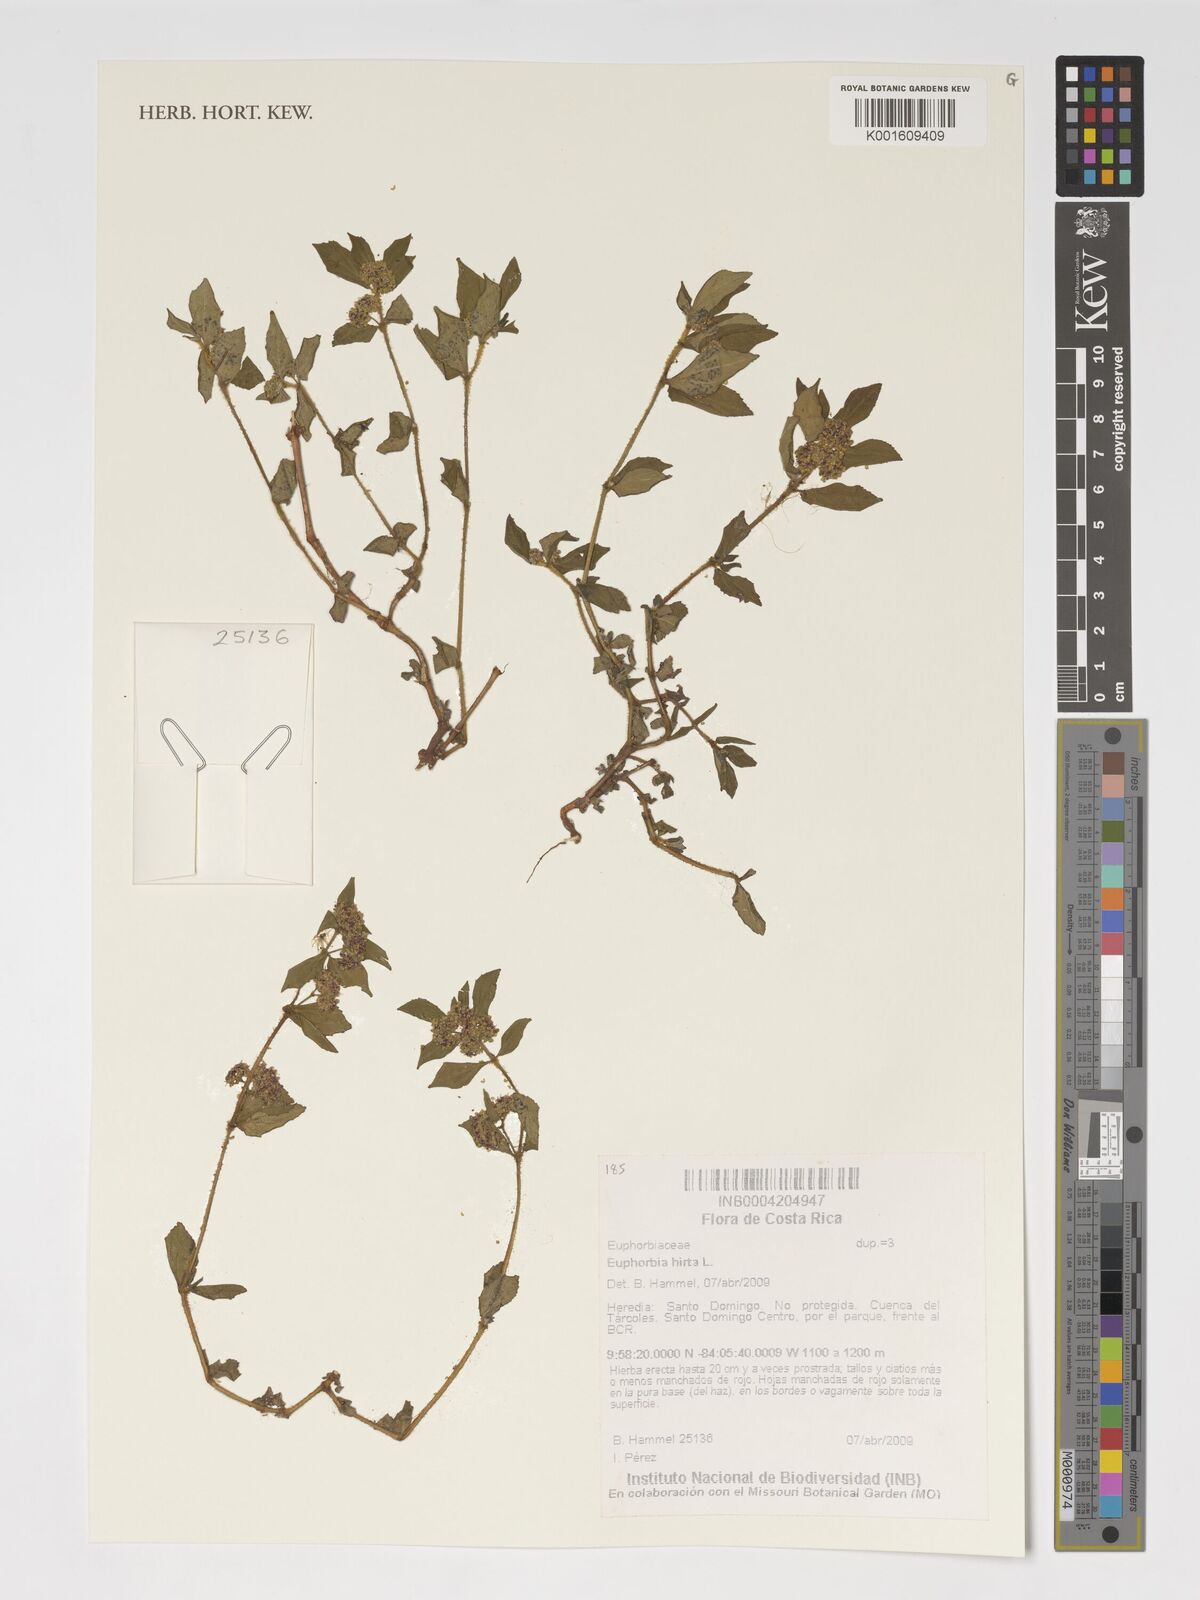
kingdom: Plantae
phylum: Tracheophyta
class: Magnoliopsida
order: Malpighiales
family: Euphorbiaceae
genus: Euphorbia
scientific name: Euphorbia hirta
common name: Pillpod sandmat
